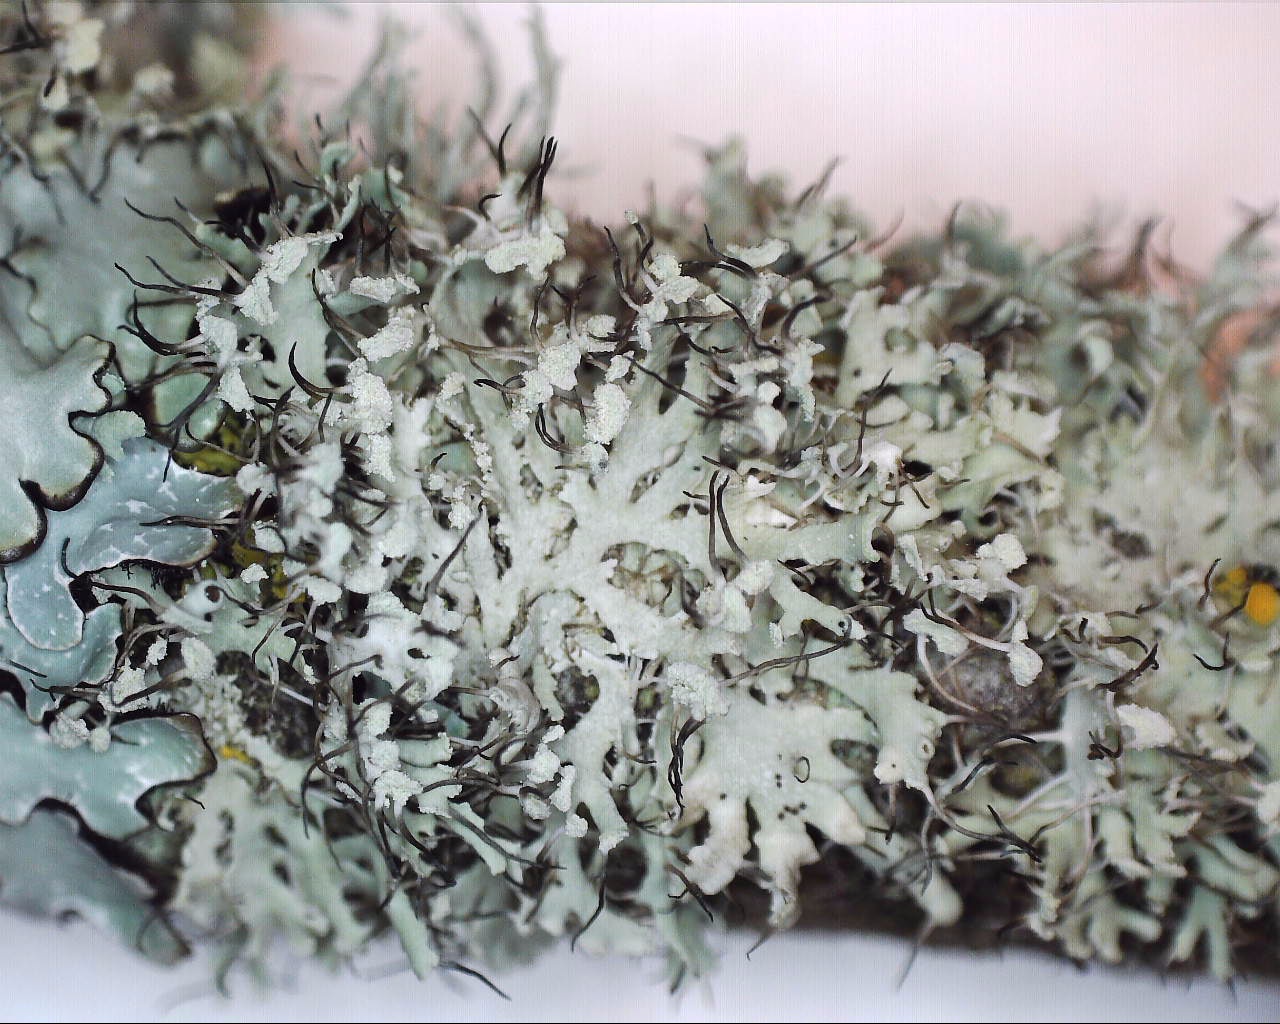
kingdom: Fungi
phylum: Ascomycota
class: Lecanoromycetes
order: Caliciales
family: Physciaceae
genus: Physcia
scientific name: Physcia tenella
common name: spæd rosetlav
